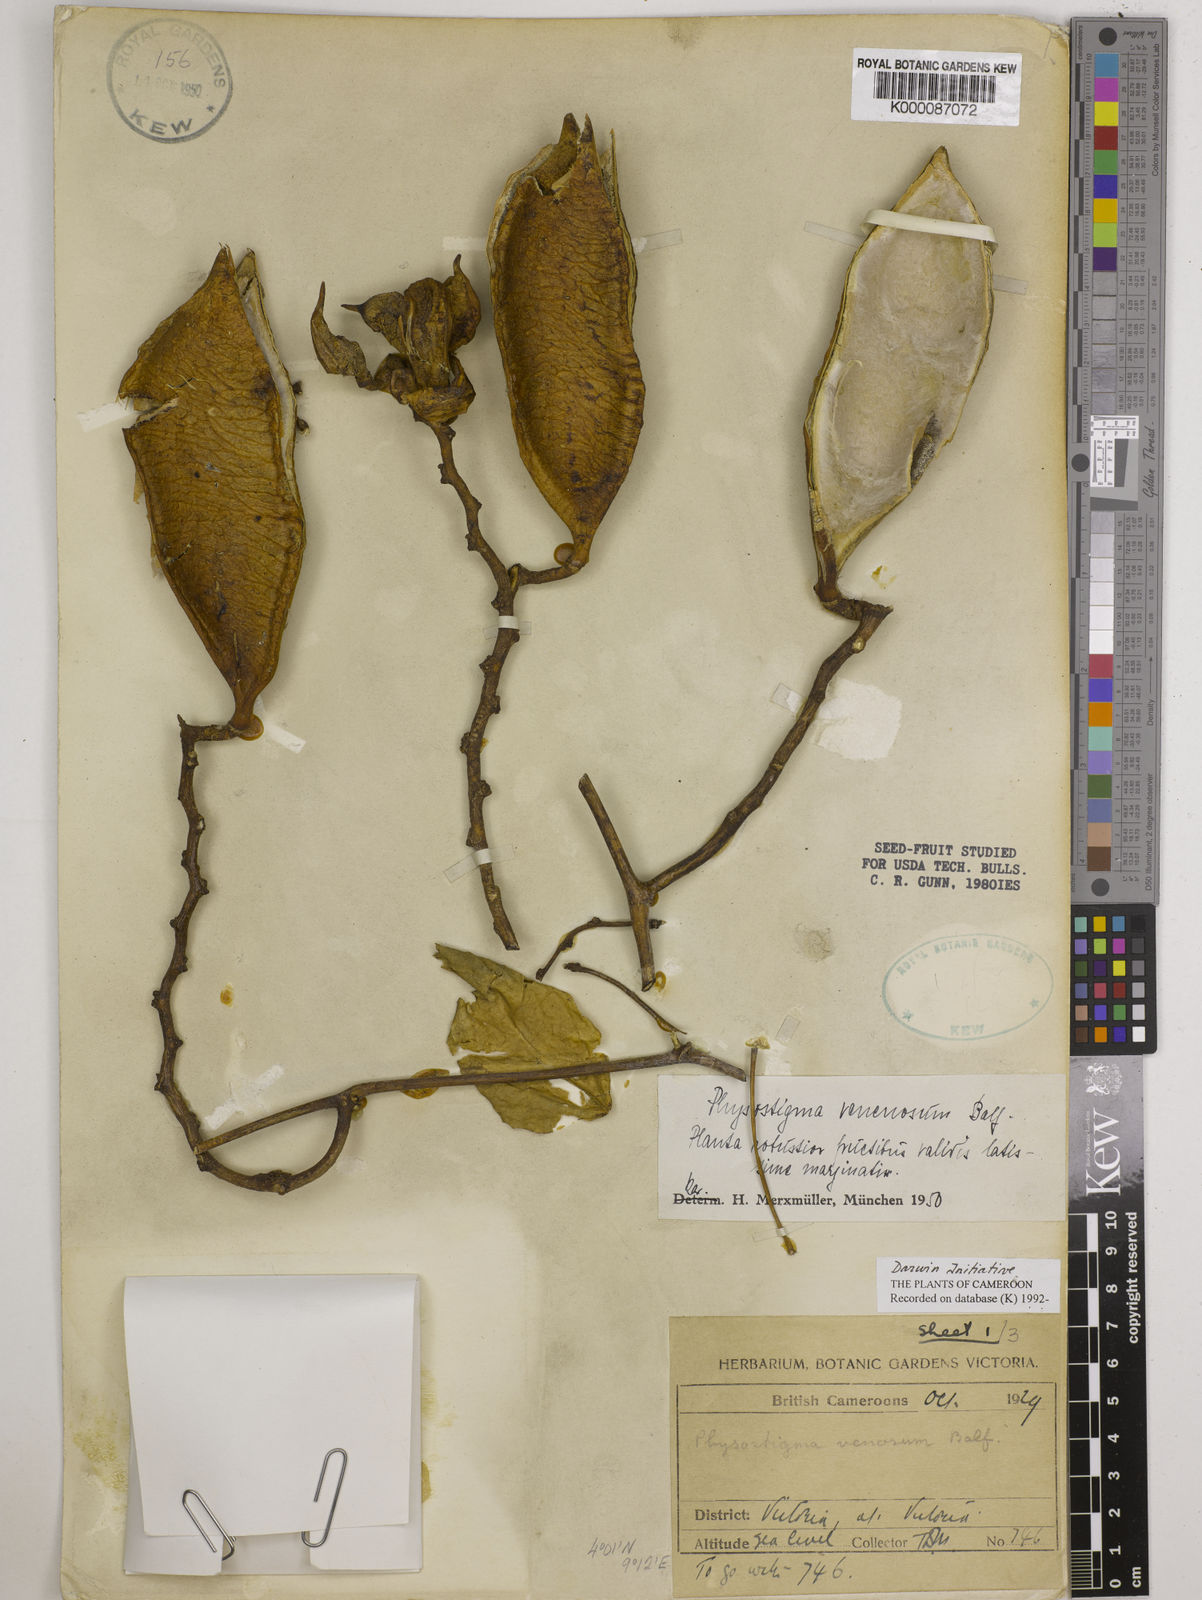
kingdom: Plantae
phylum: Tracheophyta
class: Magnoliopsida
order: Fabales
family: Fabaceae
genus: Physostigma
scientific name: Physostigma venenosum
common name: Calabar-bean
